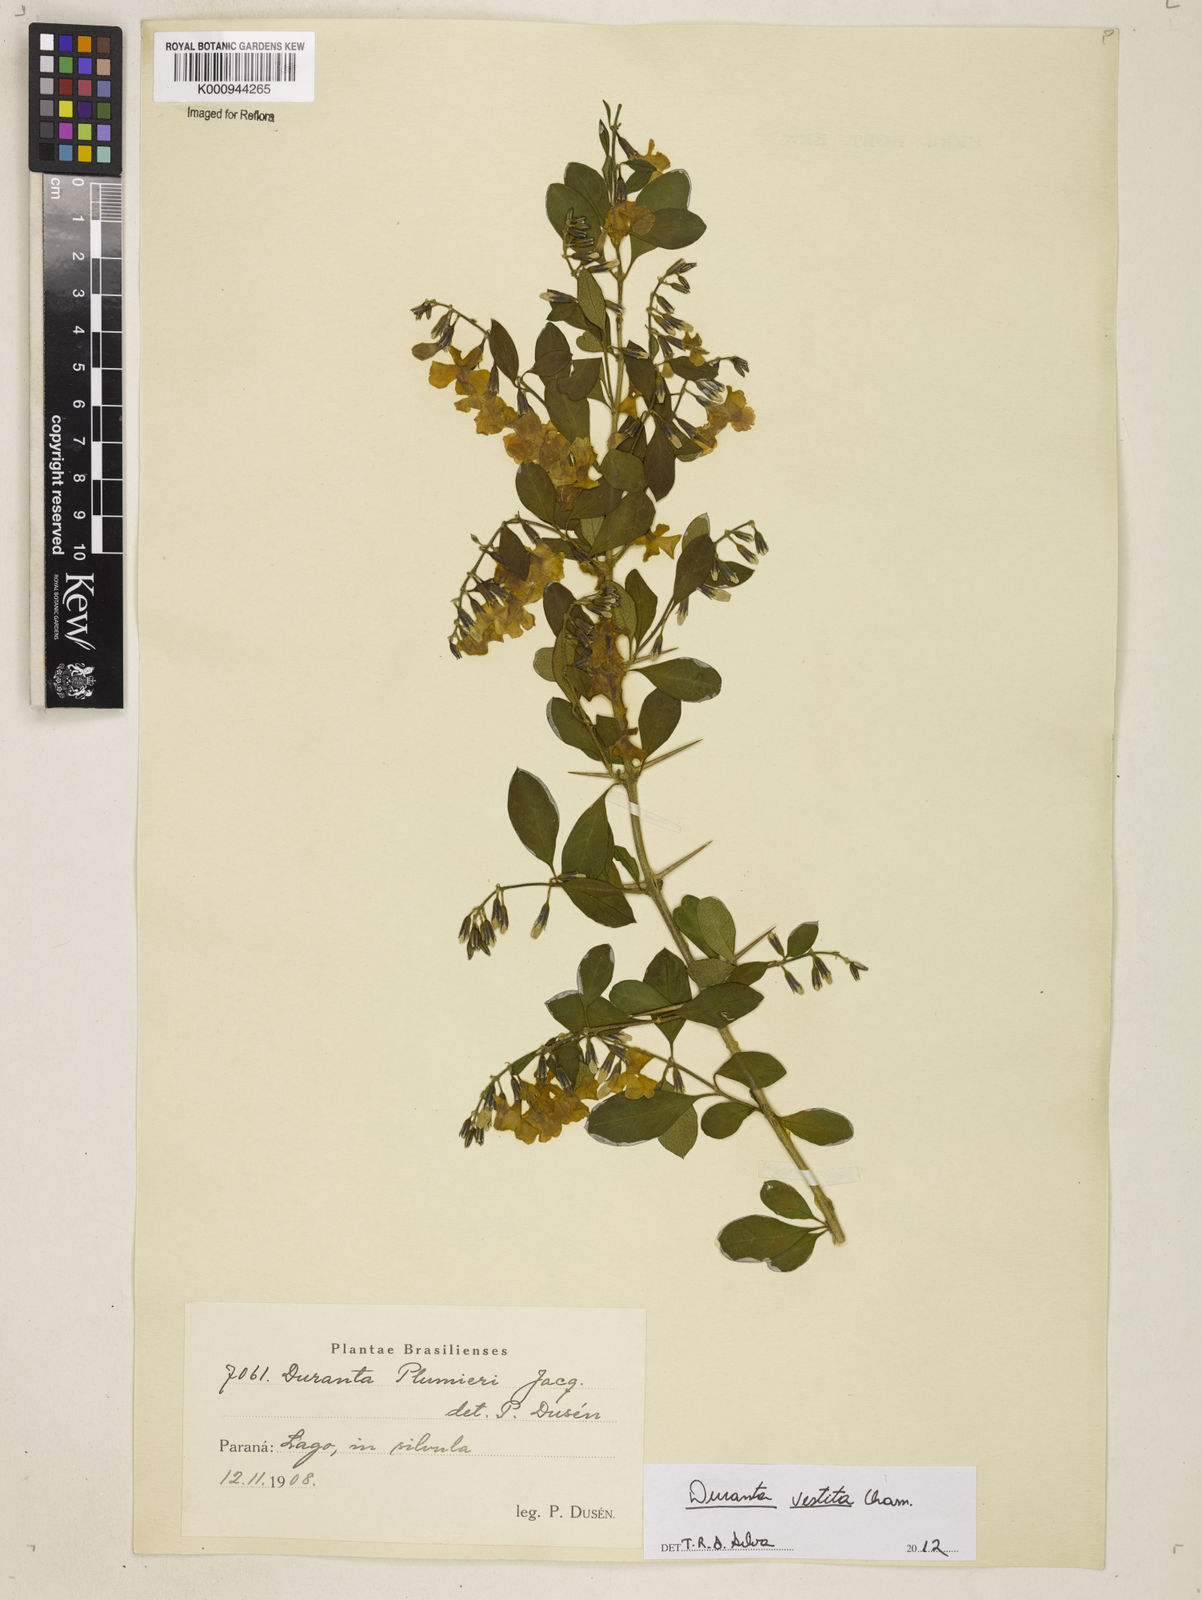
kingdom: Plantae
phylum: Tracheophyta
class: Magnoliopsida
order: Lamiales
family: Verbenaceae
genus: Citharexylum
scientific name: Citharexylum
